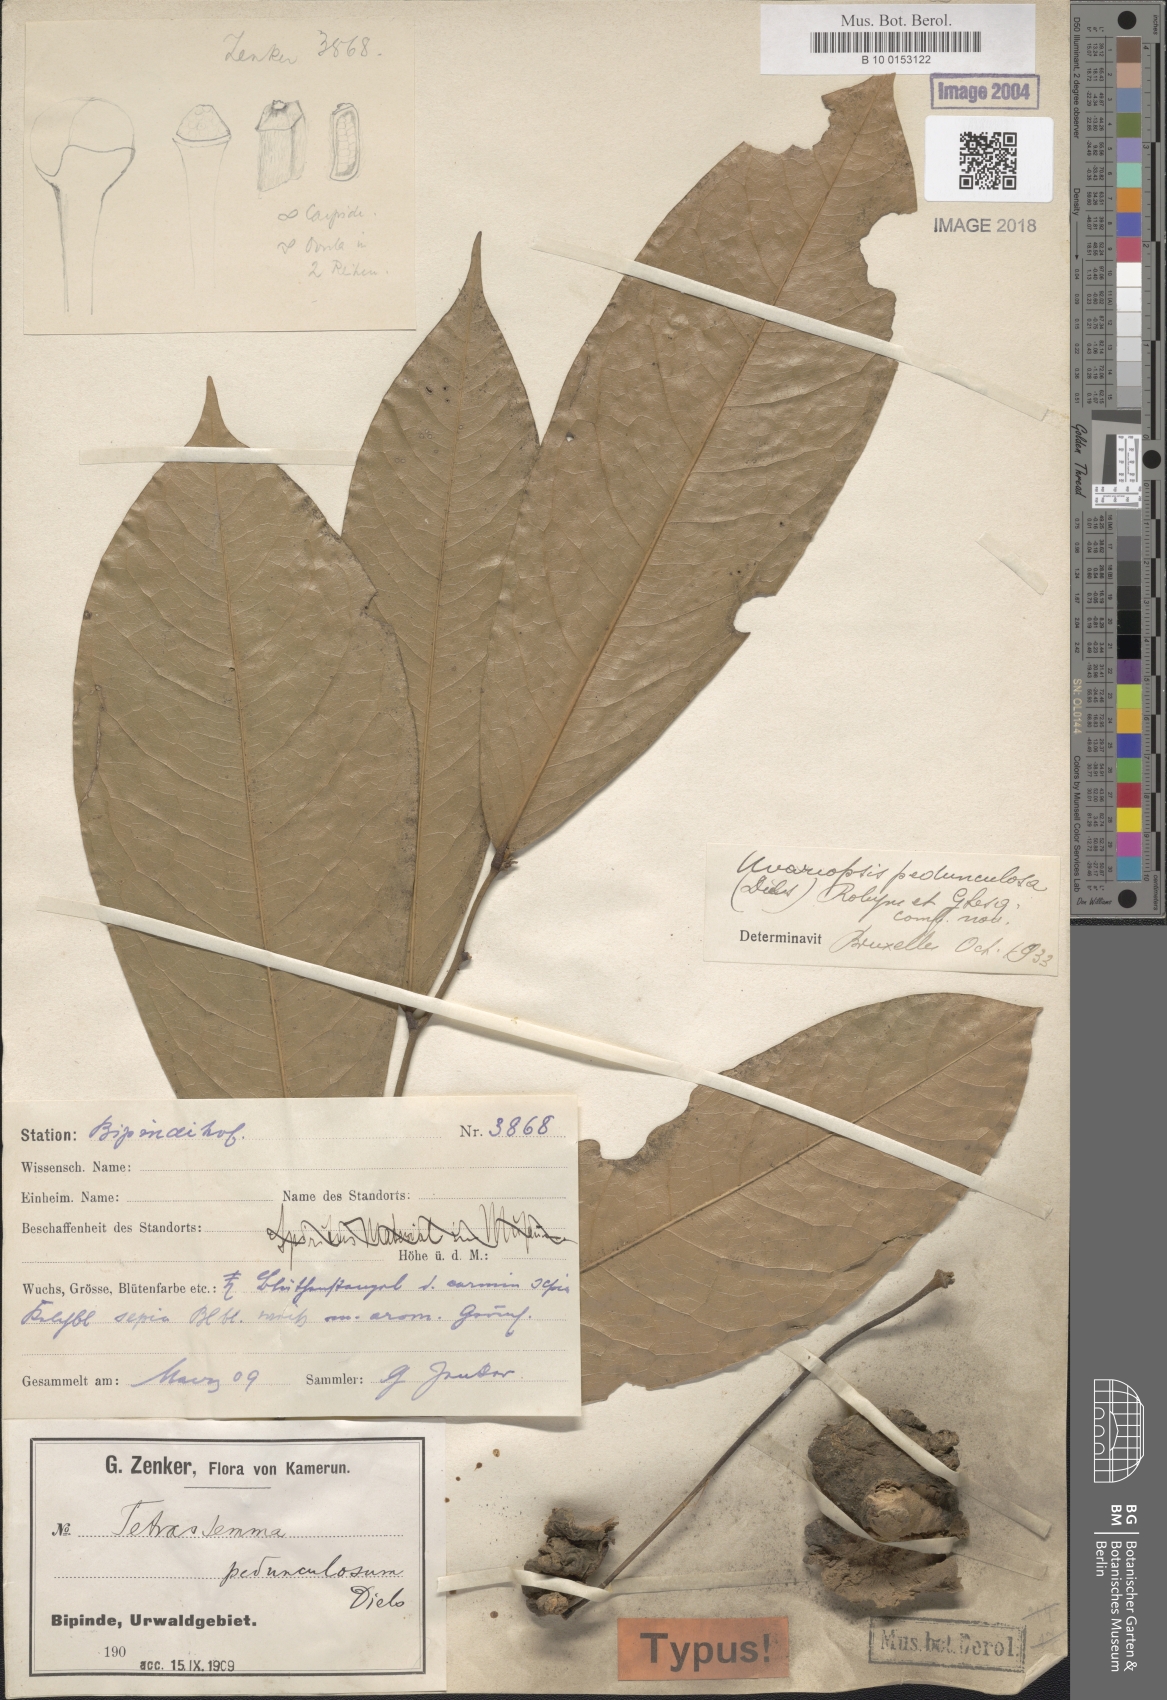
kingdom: Plantae
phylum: Tracheophyta
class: Magnoliopsida
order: Magnoliales
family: Annonaceae
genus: Uvariopsis
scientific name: Uvariopsis dioica
